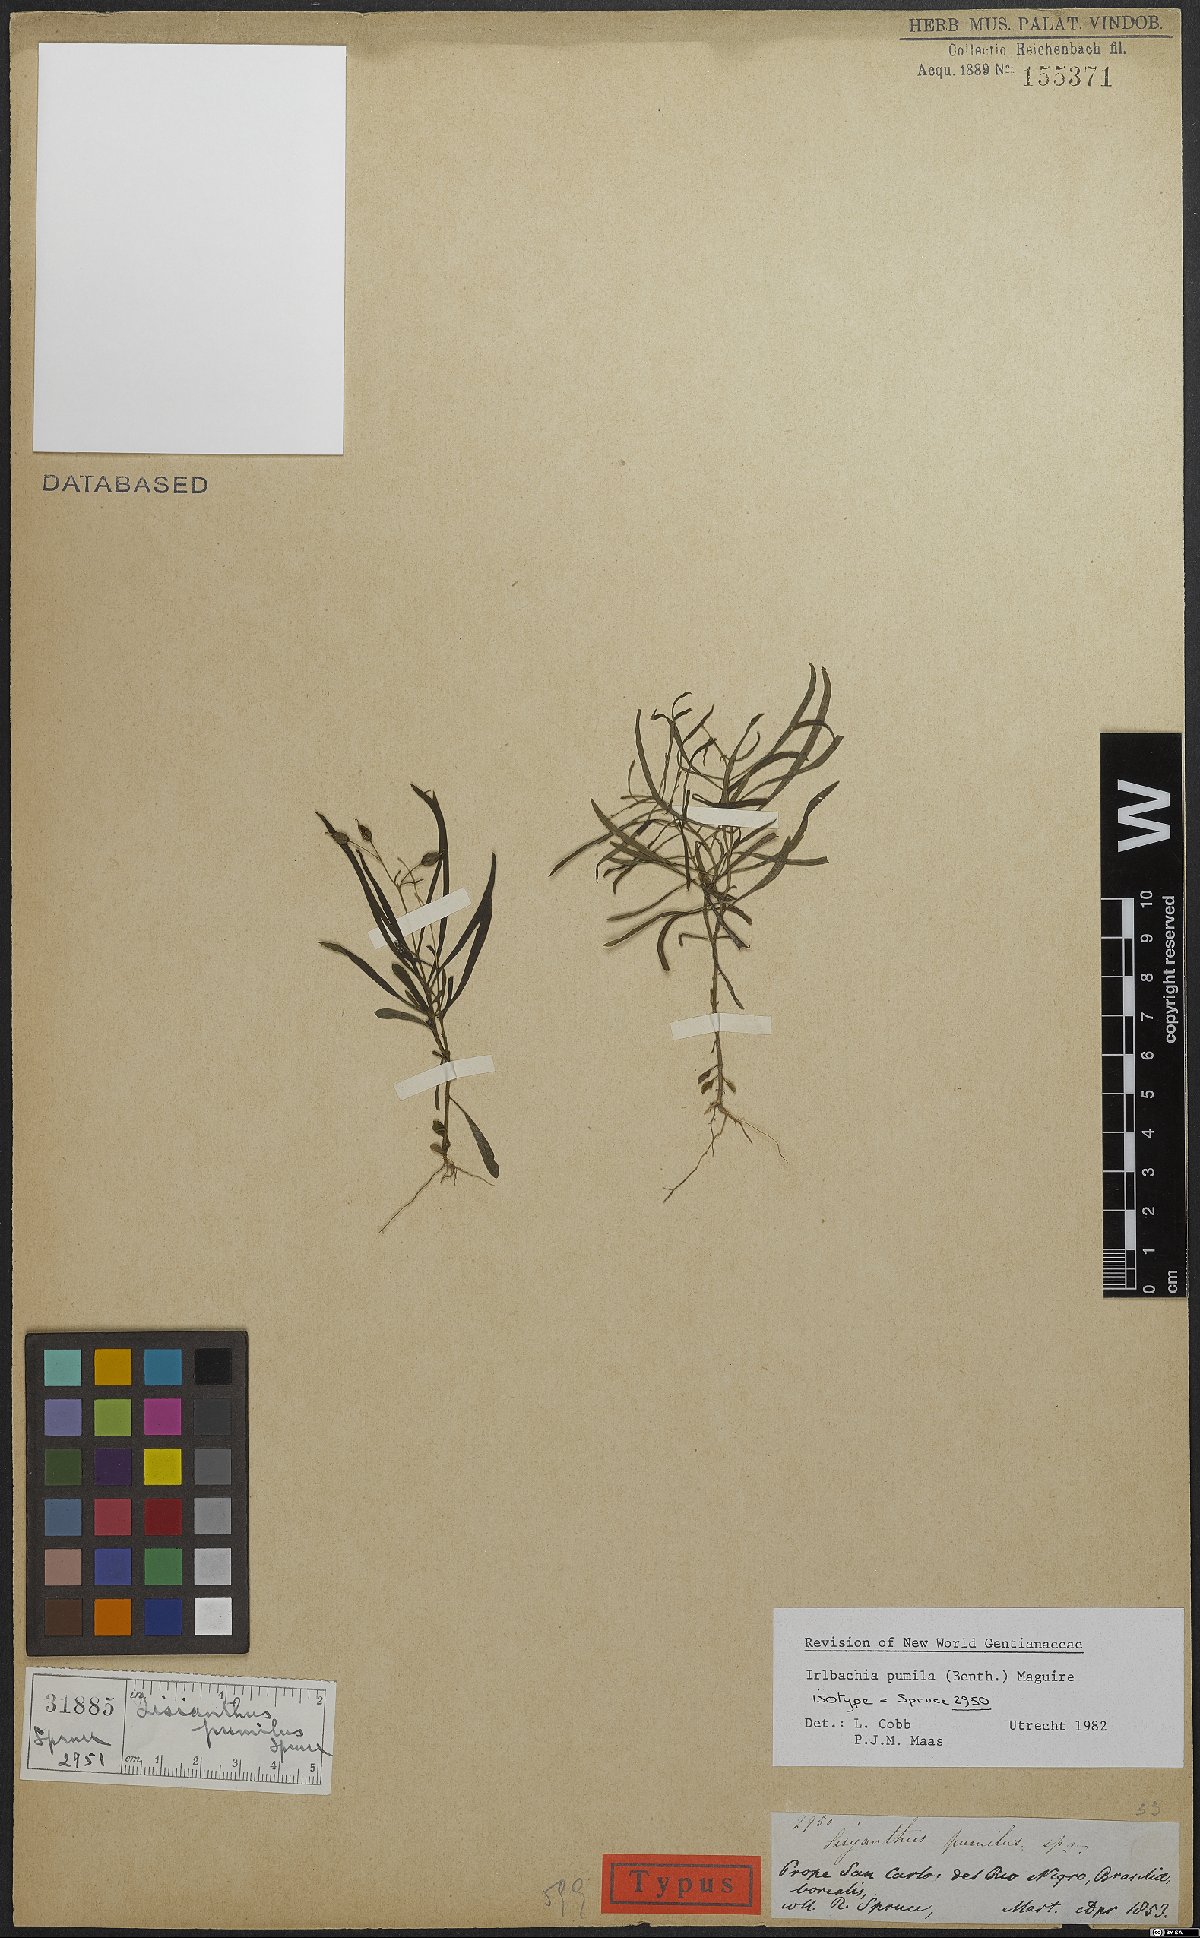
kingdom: Plantae
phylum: Tracheophyta
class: Magnoliopsida
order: Gentianales
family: Gentianaceae
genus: Irlbachia
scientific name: Irlbachia pumila
